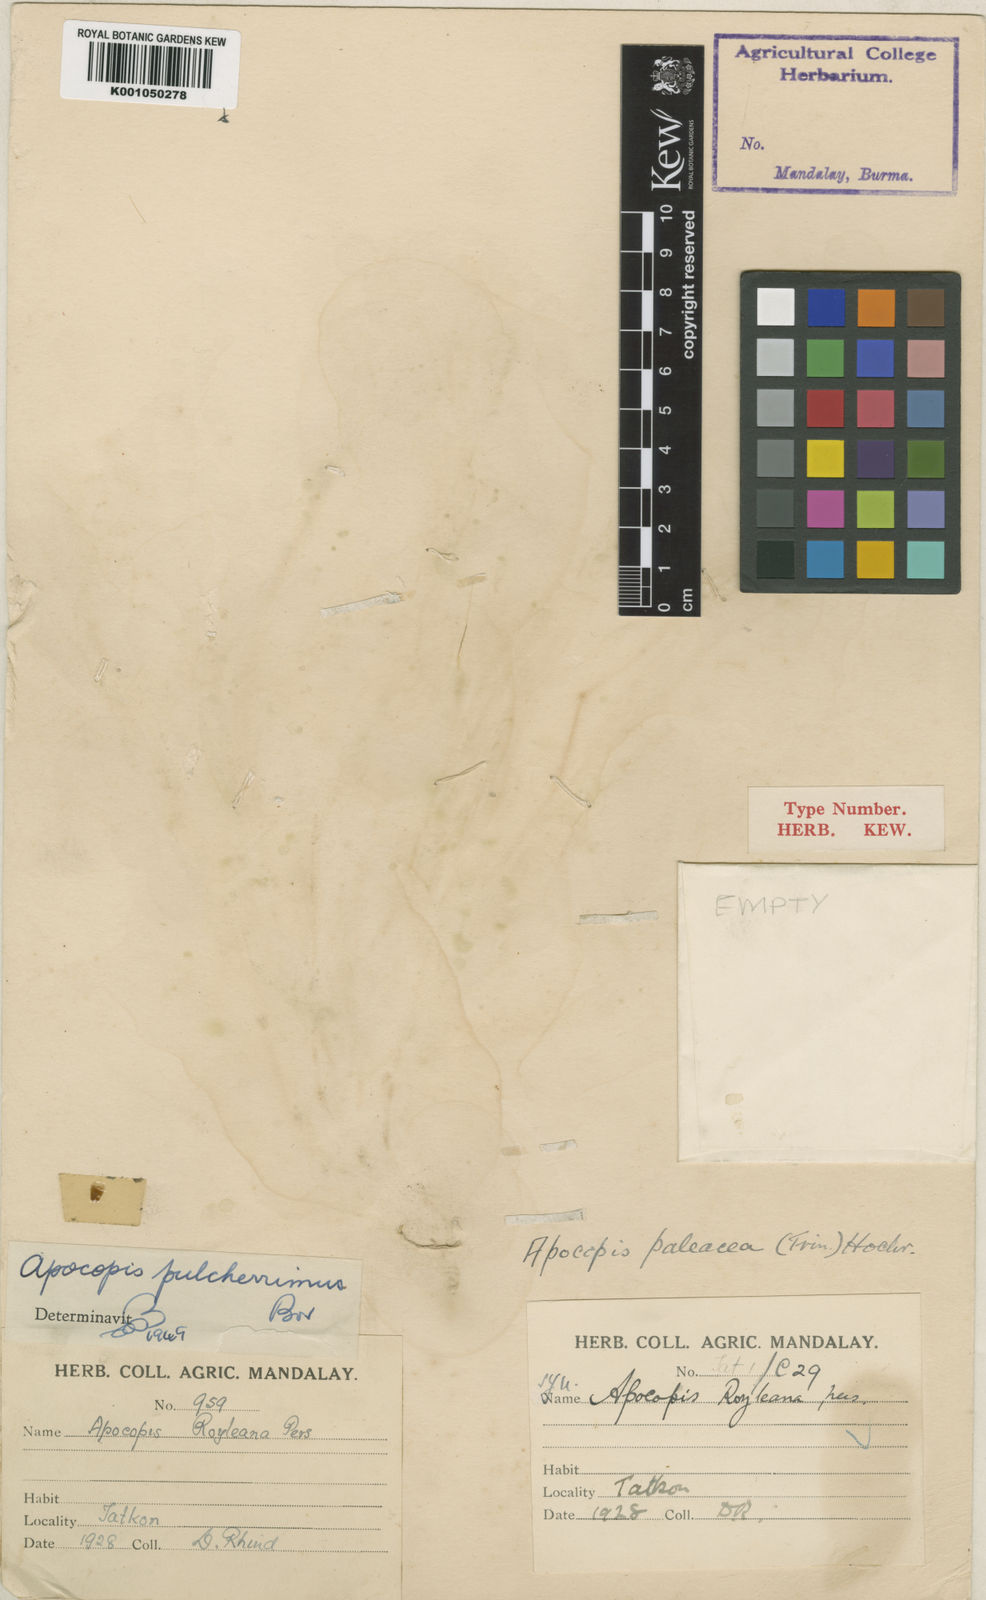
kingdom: Plantae
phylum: Tracheophyta
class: Liliopsida
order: Poales
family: Poaceae
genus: Apocopis
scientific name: Apocopis pulcherrimus
